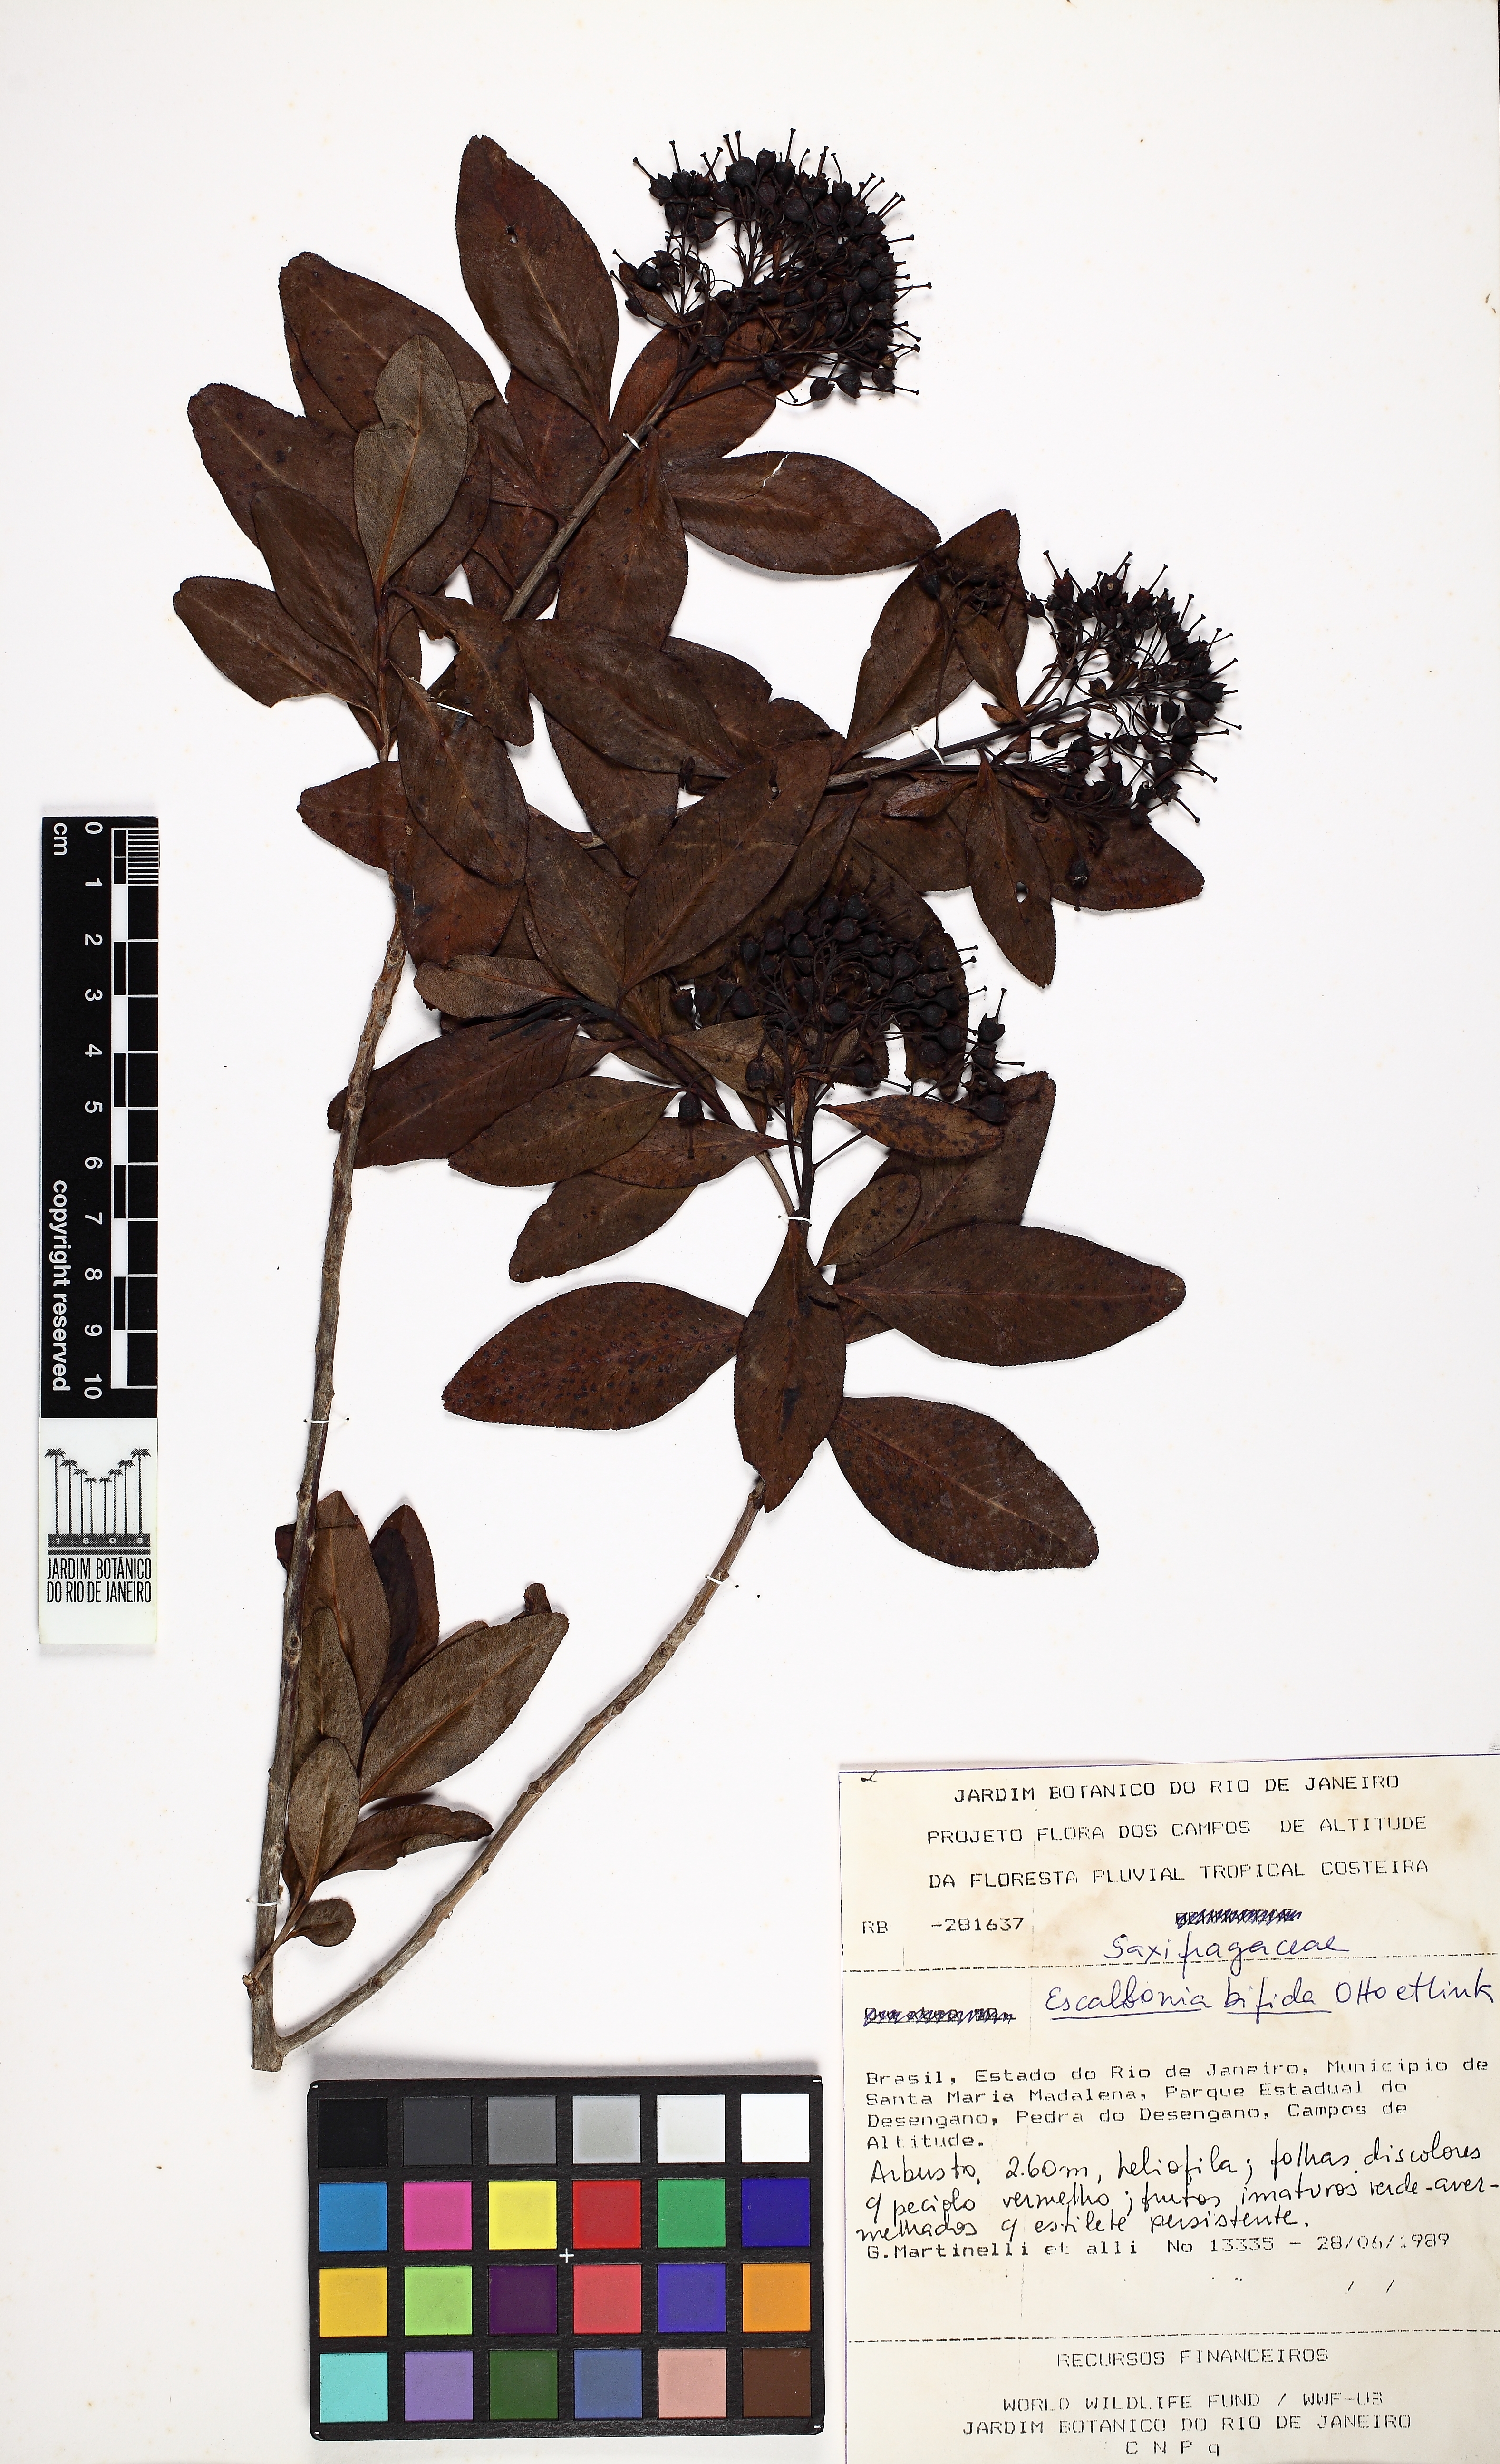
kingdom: Plantae
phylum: Tracheophyta
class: Magnoliopsida
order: Escalloniales
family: Escalloniaceae
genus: Escallonia
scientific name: Escallonia bifida
